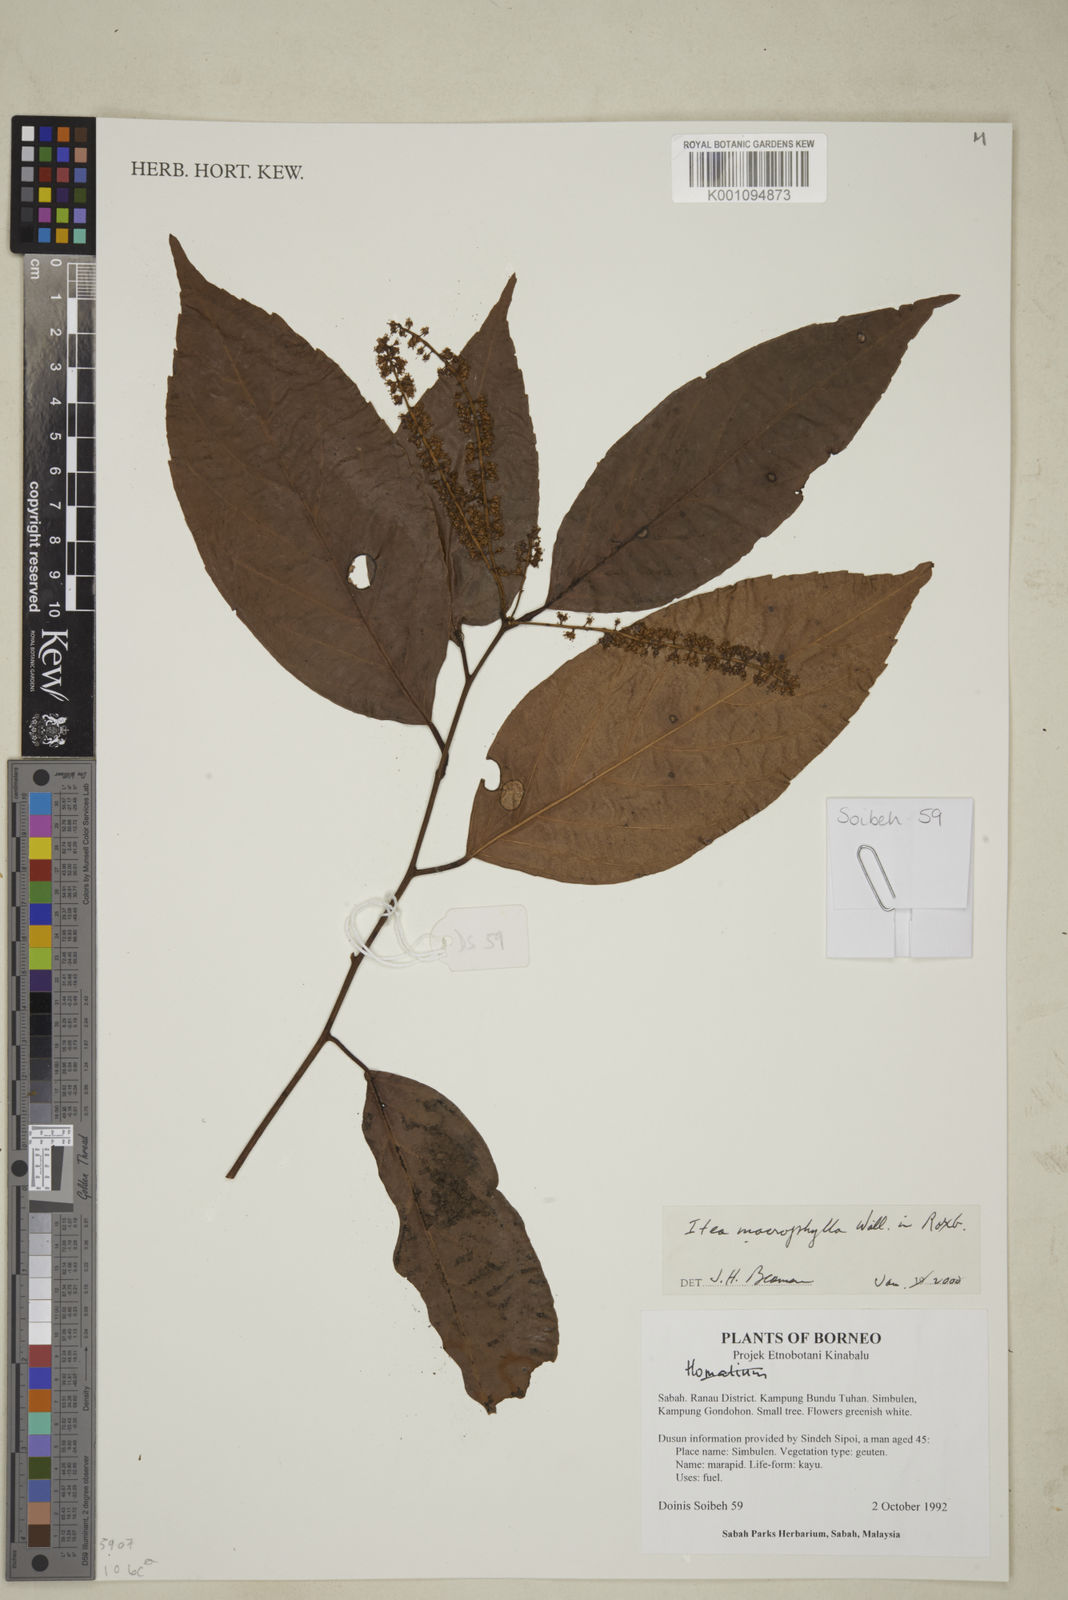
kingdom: Plantae
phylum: Tracheophyta
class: Magnoliopsida
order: Saxifragales
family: Iteaceae
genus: Itea
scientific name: Itea macrophylla
